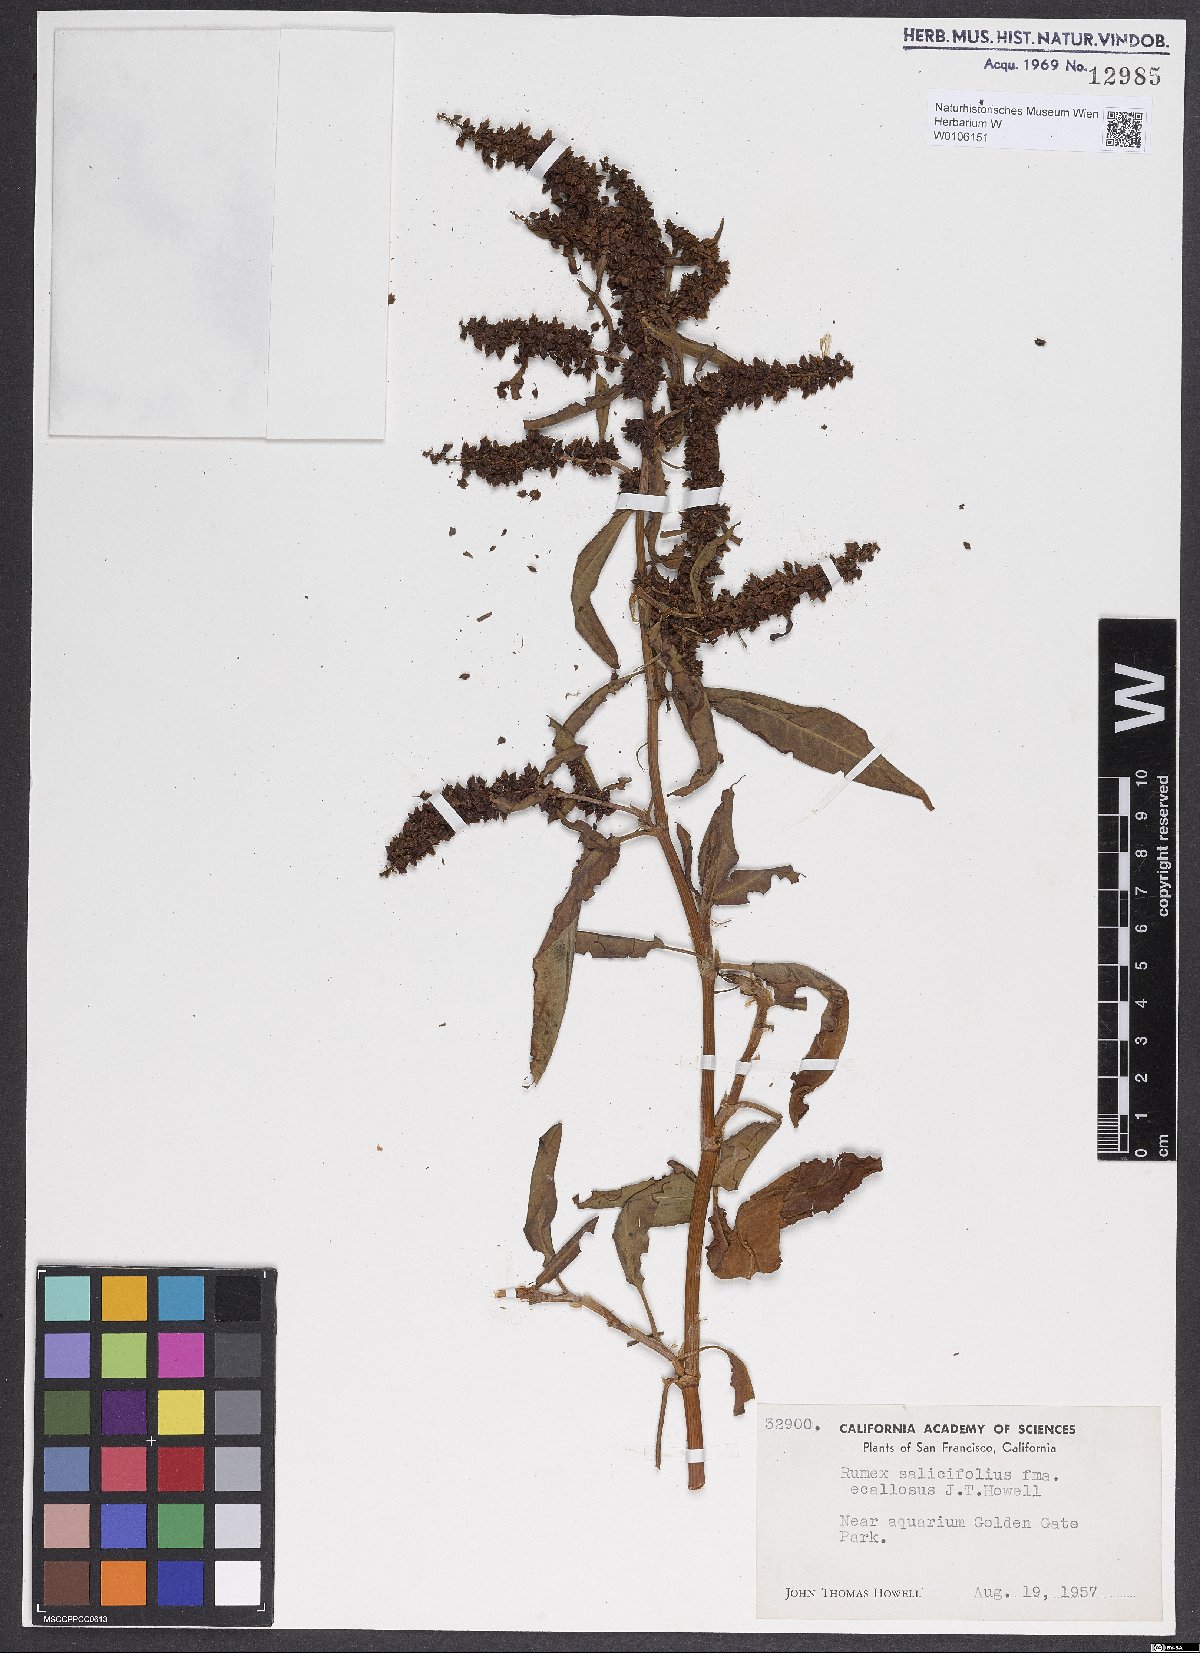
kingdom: Plantae
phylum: Tracheophyta
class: Magnoliopsida
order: Caryophyllales
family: Polygonaceae
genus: Rumex
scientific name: Rumex crassus
